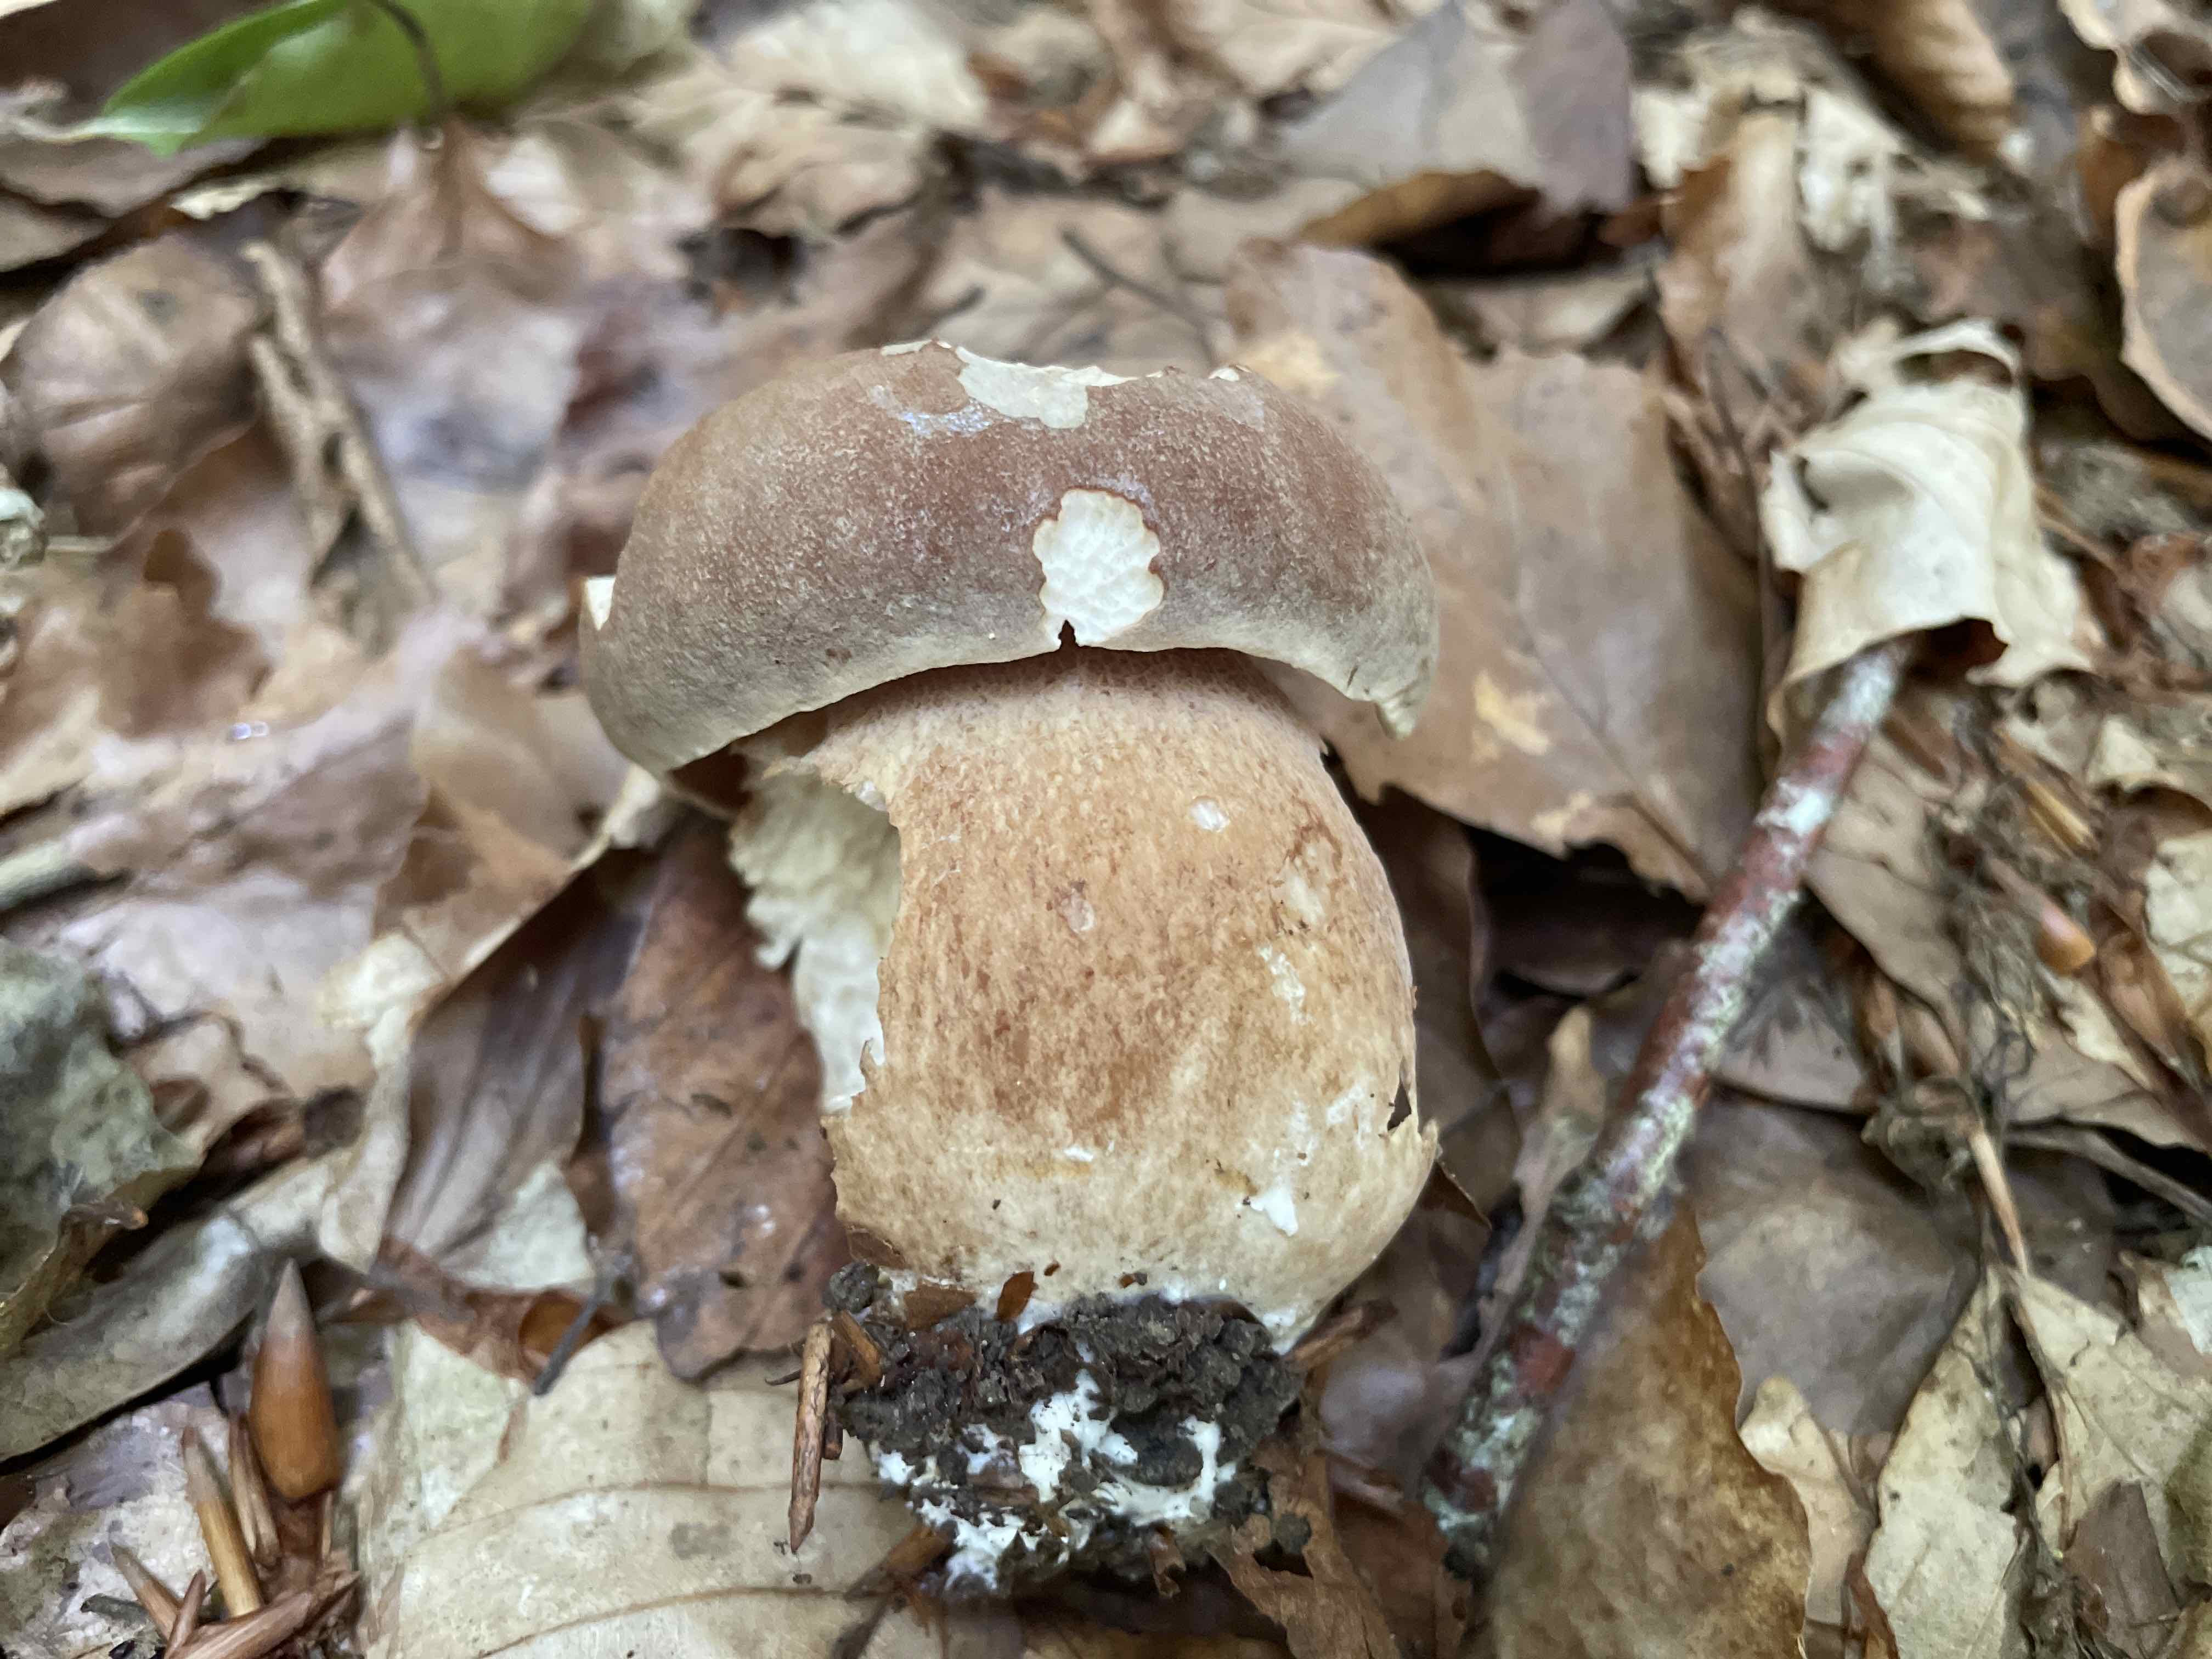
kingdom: Fungi
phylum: Basidiomycota
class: Agaricomycetes
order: Boletales
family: Boletaceae
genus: Boletus
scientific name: Boletus reticulatus
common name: sommer-rørhat
